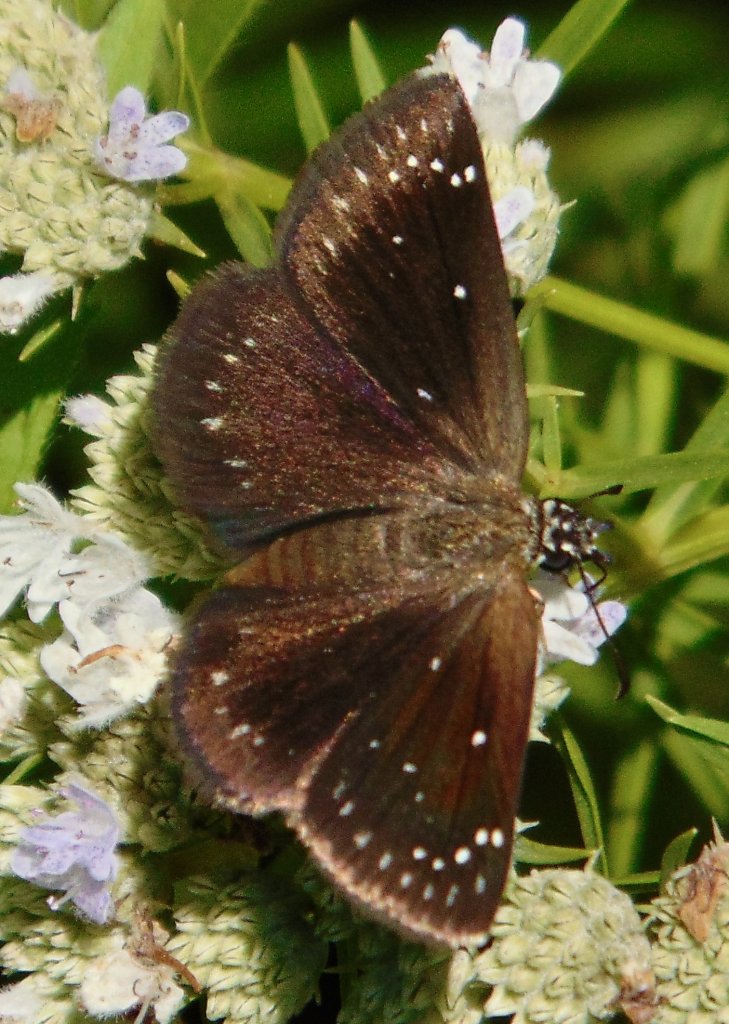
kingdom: Animalia
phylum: Arthropoda
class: Insecta
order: Lepidoptera
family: Hesperiidae
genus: Pholisora
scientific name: Pholisora catullus
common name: Common Sootywing
